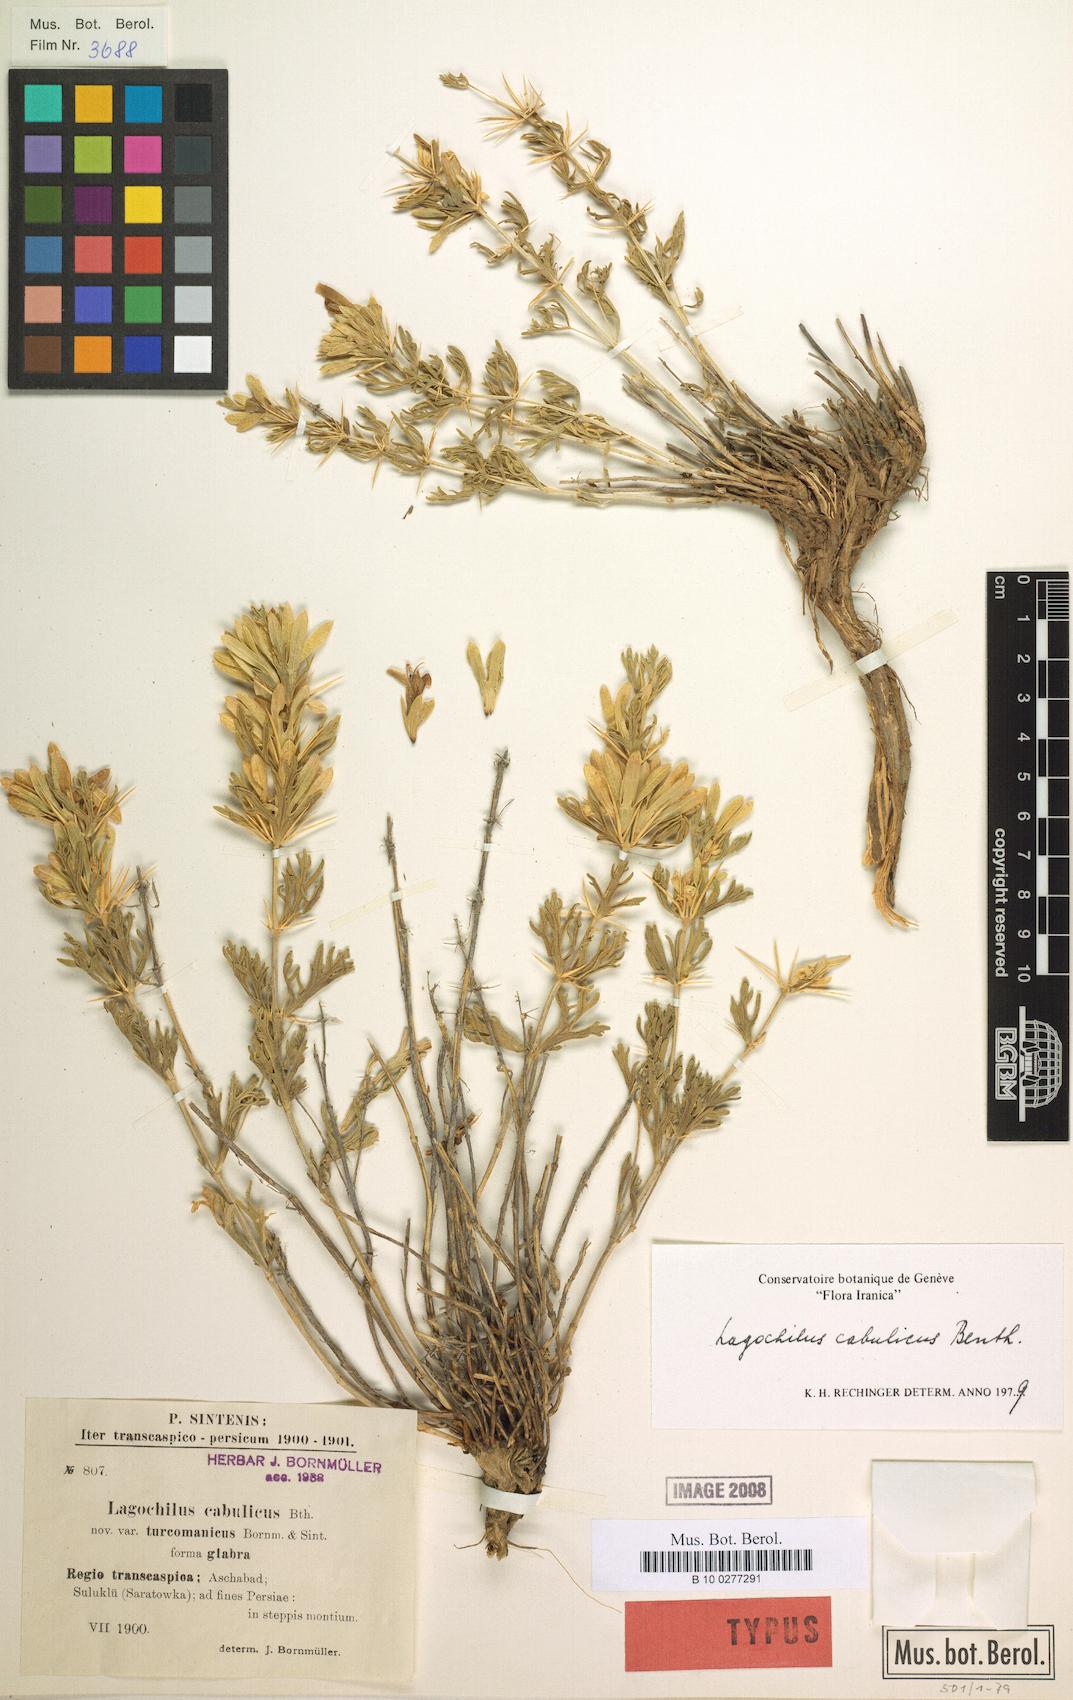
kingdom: Plantae
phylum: Tracheophyta
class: Magnoliopsida
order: Lamiales
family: Lamiaceae
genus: Lagochilus
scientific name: Lagochilus cabulicus
